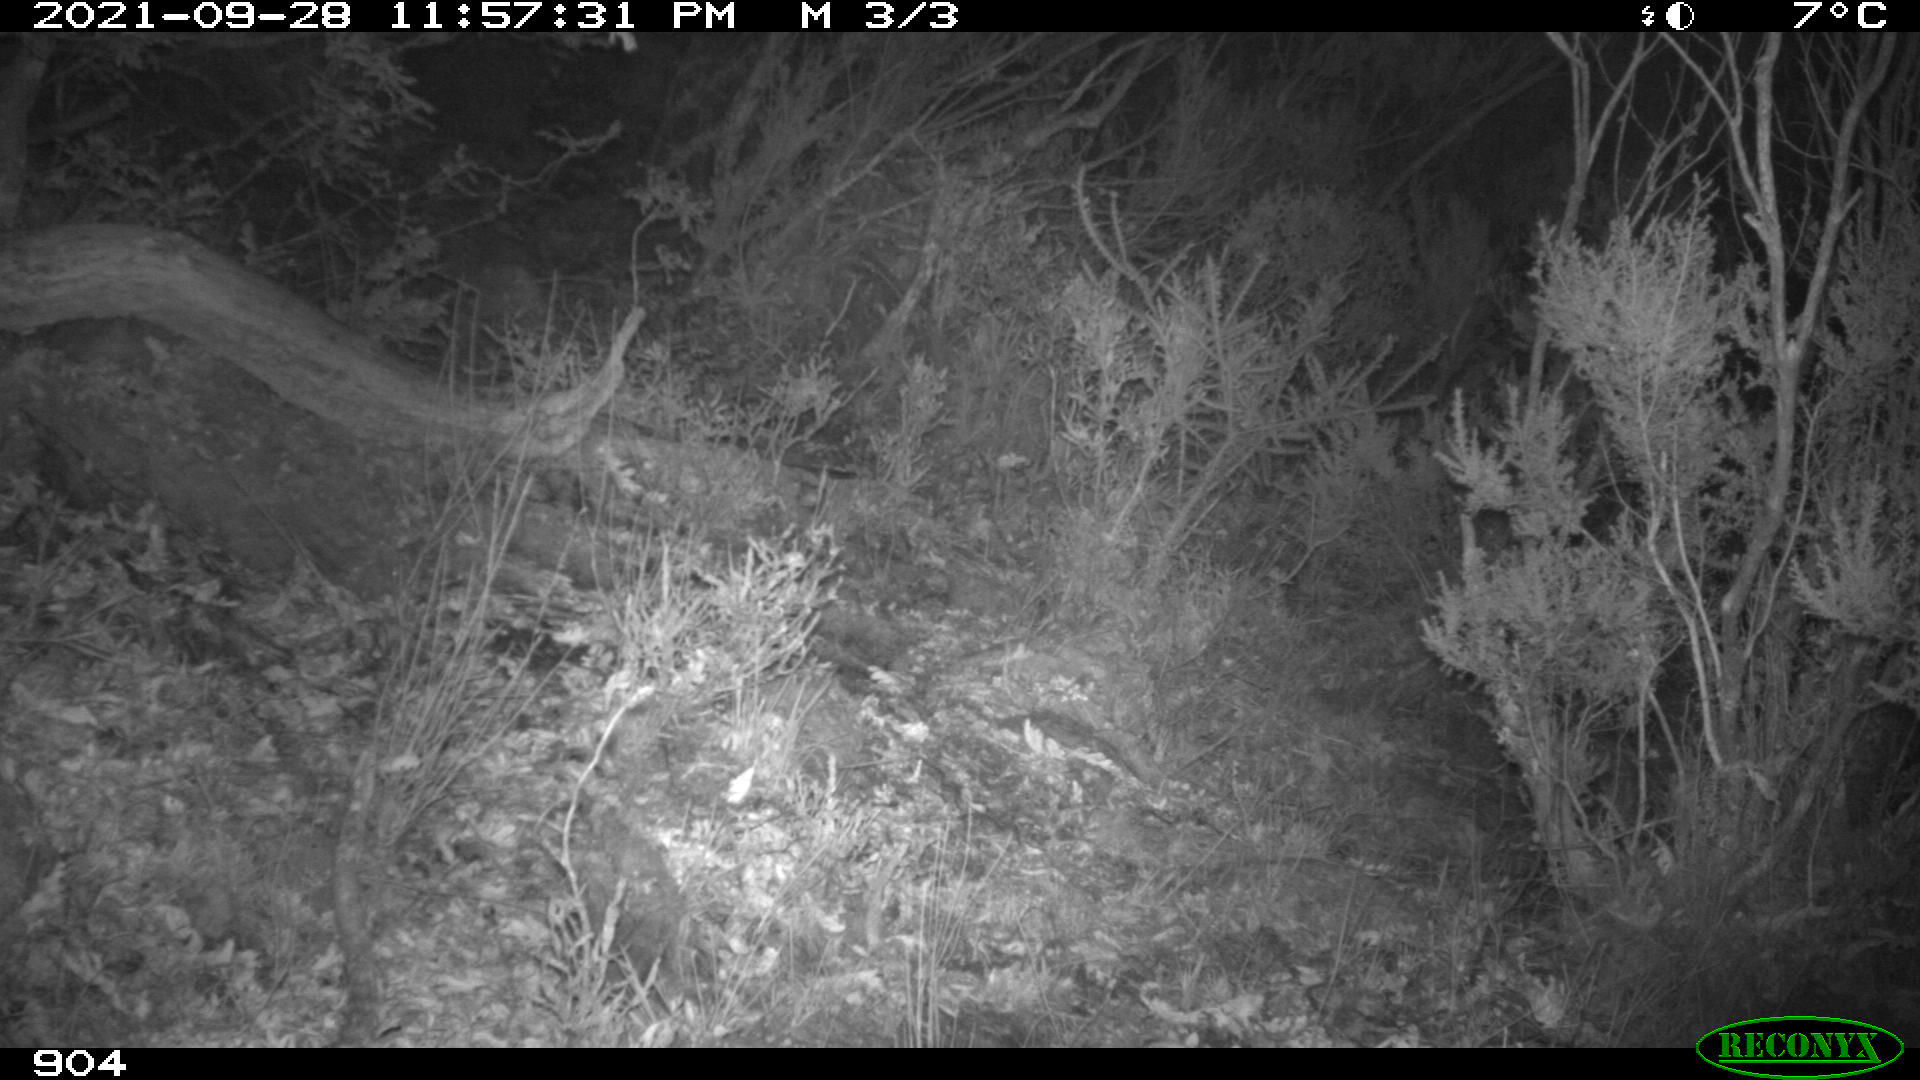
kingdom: Animalia
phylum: Chordata
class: Mammalia
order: Artiodactyla
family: Suidae
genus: Sus
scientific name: Sus scrofa
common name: Wild boar
